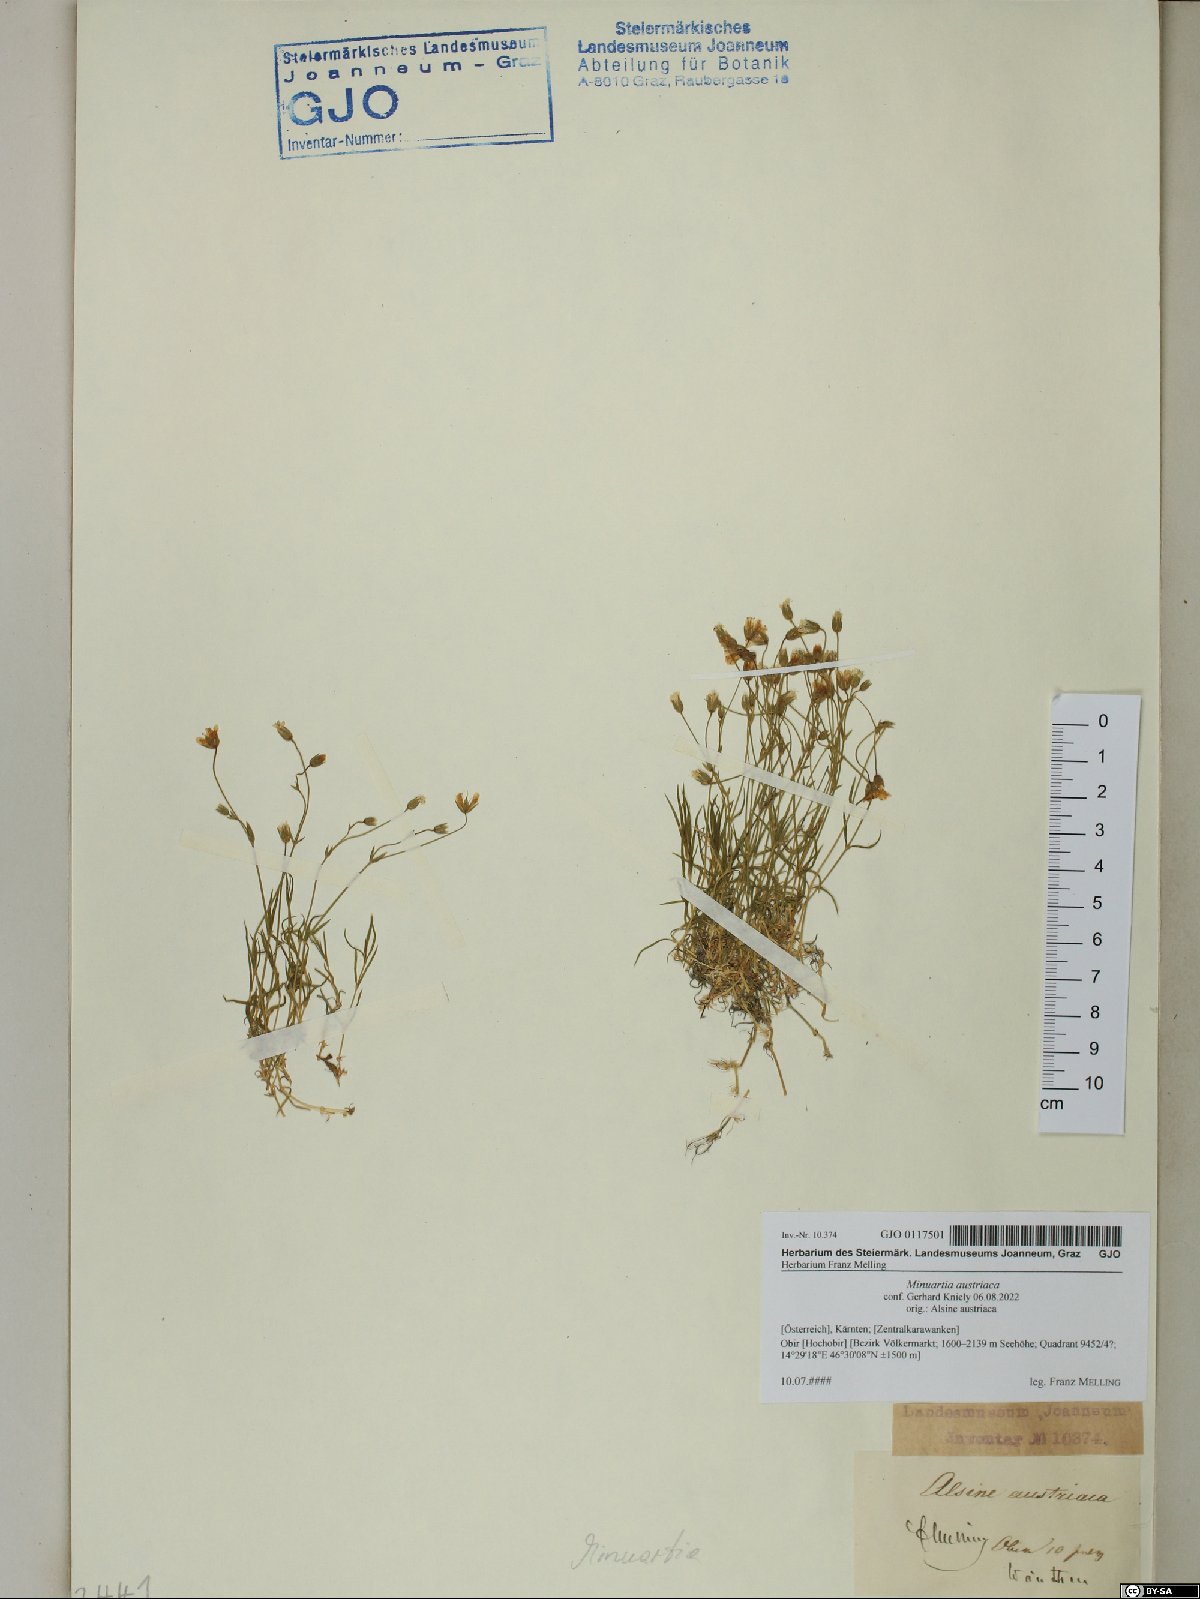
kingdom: Plantae
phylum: Tracheophyta
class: Magnoliopsida
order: Caryophyllales
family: Caryophyllaceae
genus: Sabulina
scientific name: Sabulina austriaca
